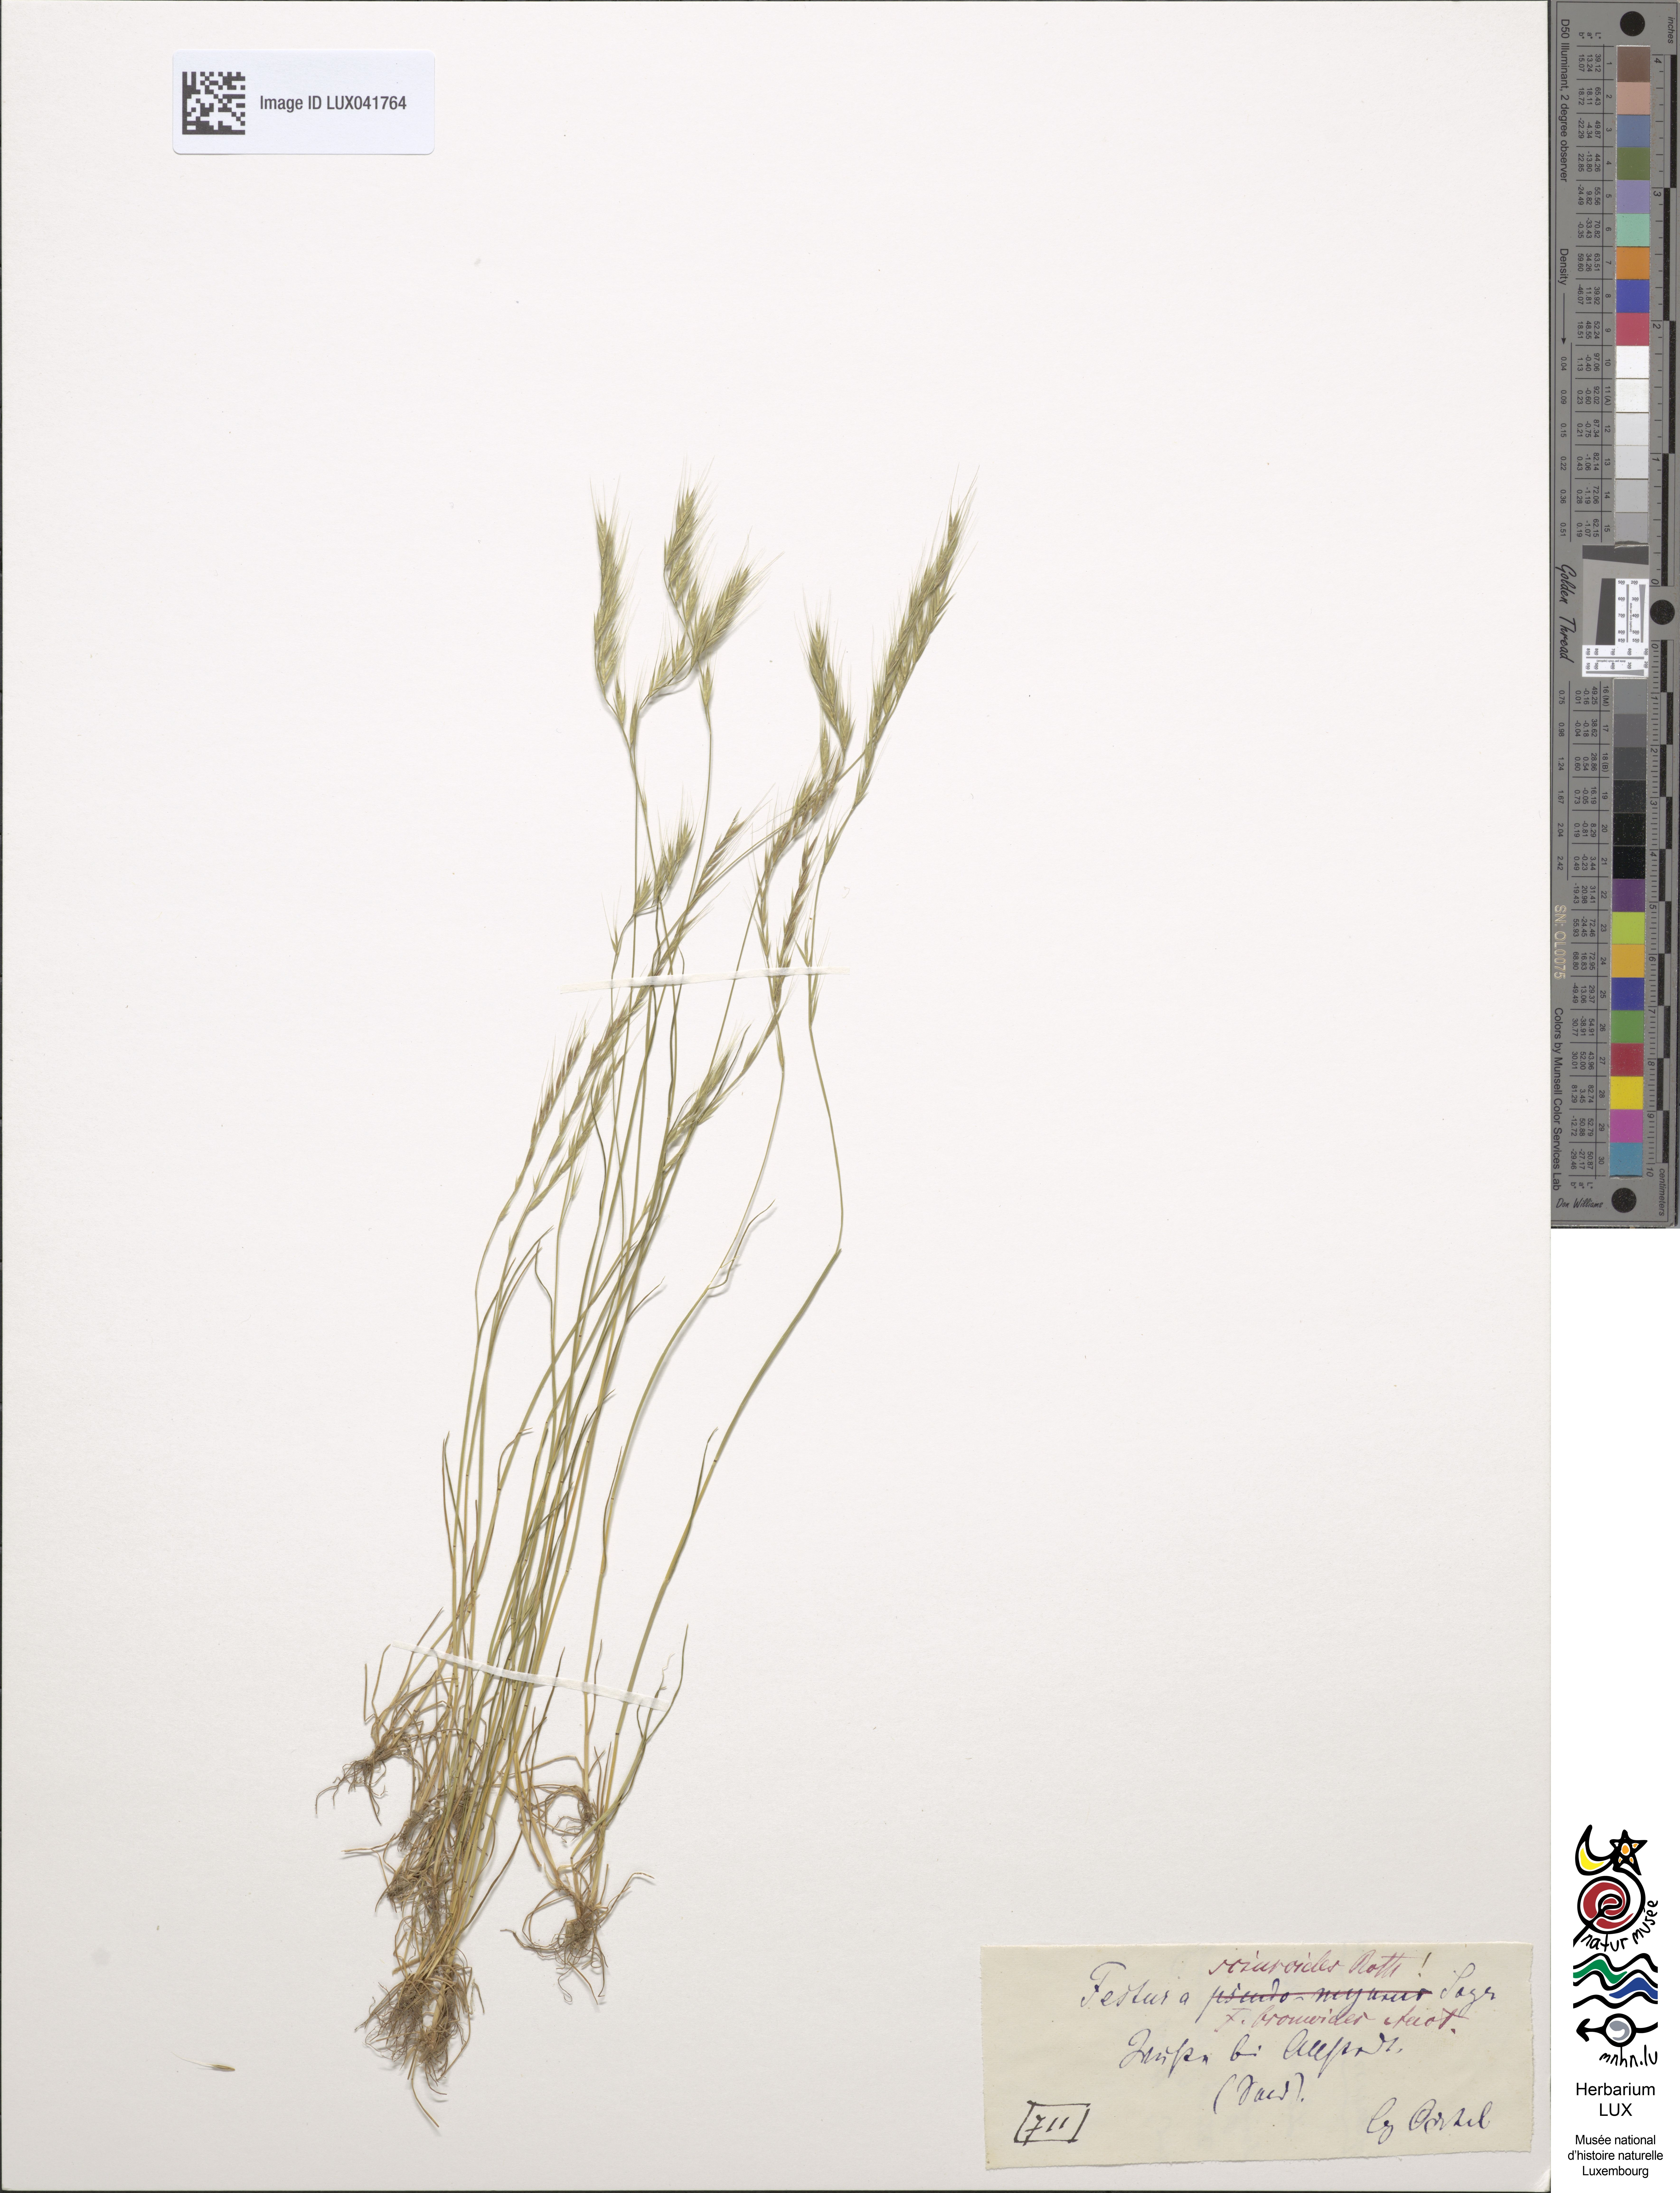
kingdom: Plantae
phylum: Tracheophyta
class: Liliopsida
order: Poales
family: Poaceae
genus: Festuca
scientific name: Festuca bromoides
